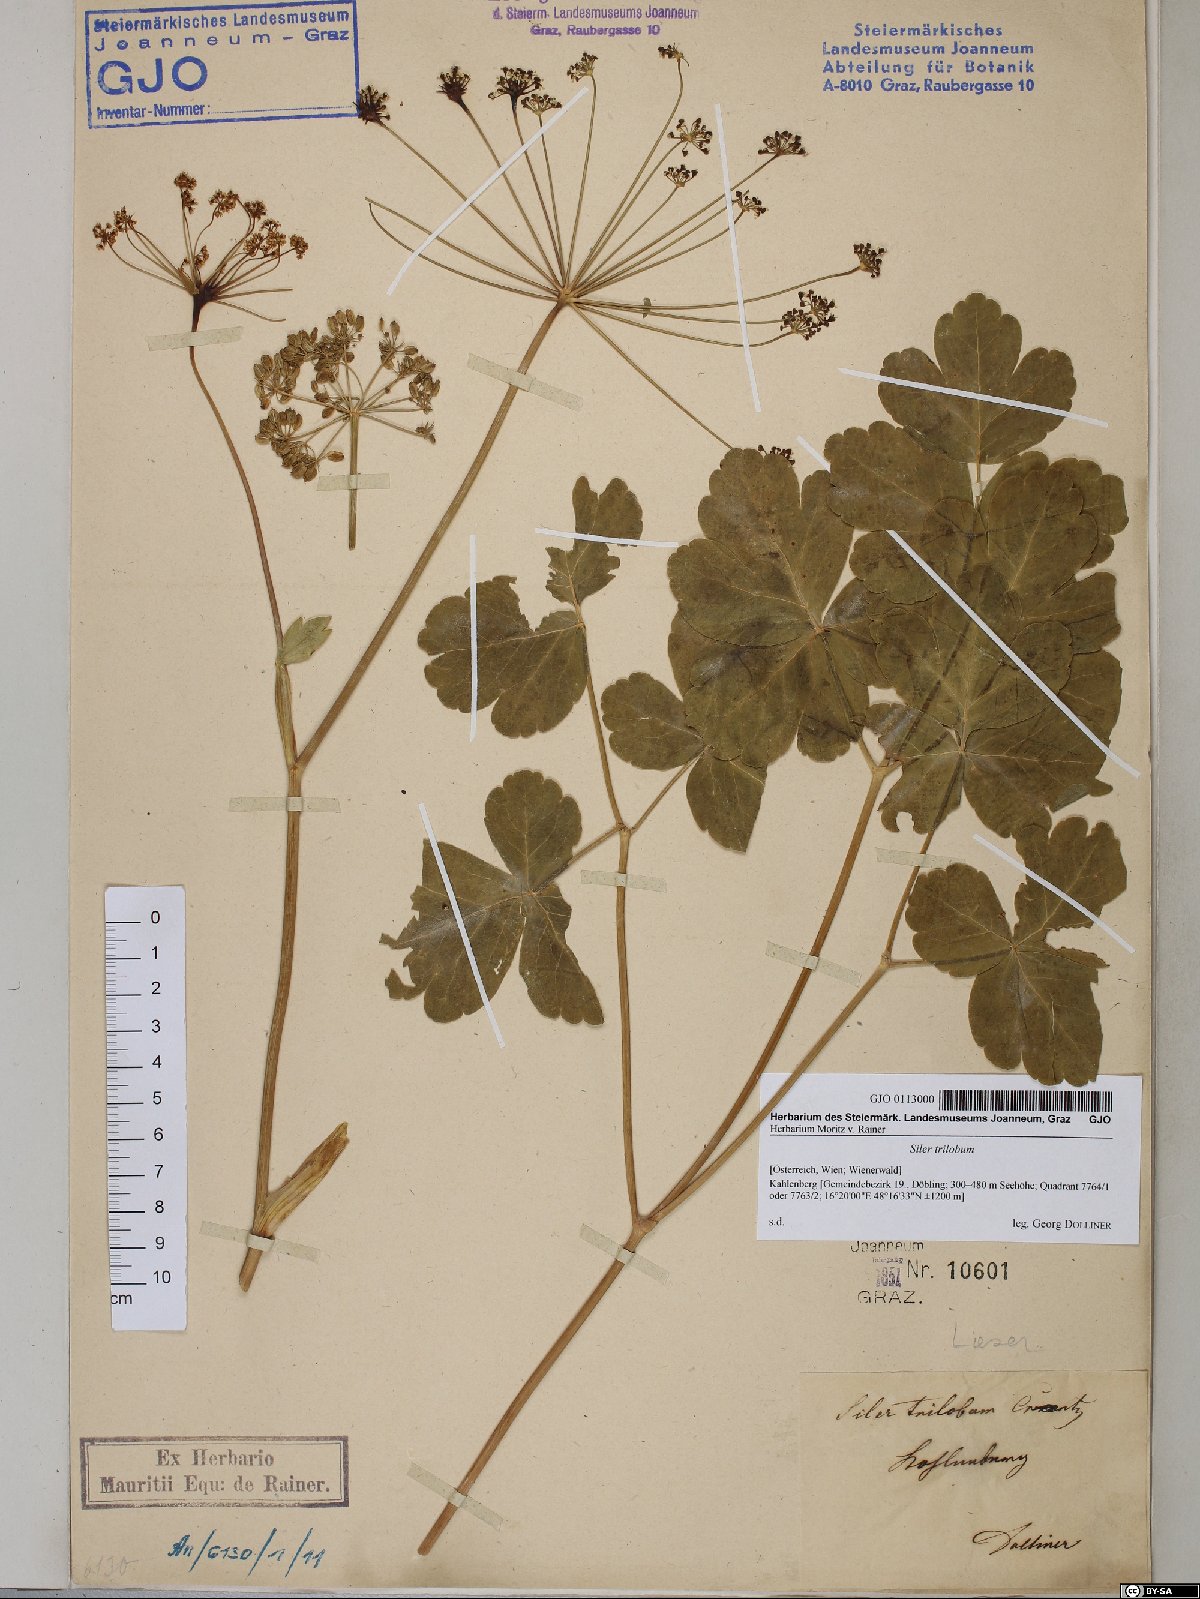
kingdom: Plantae
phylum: Tracheophyta
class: Magnoliopsida
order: Apiales
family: Apiaceae
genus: Laser
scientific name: Laser trilobum
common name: Laser
